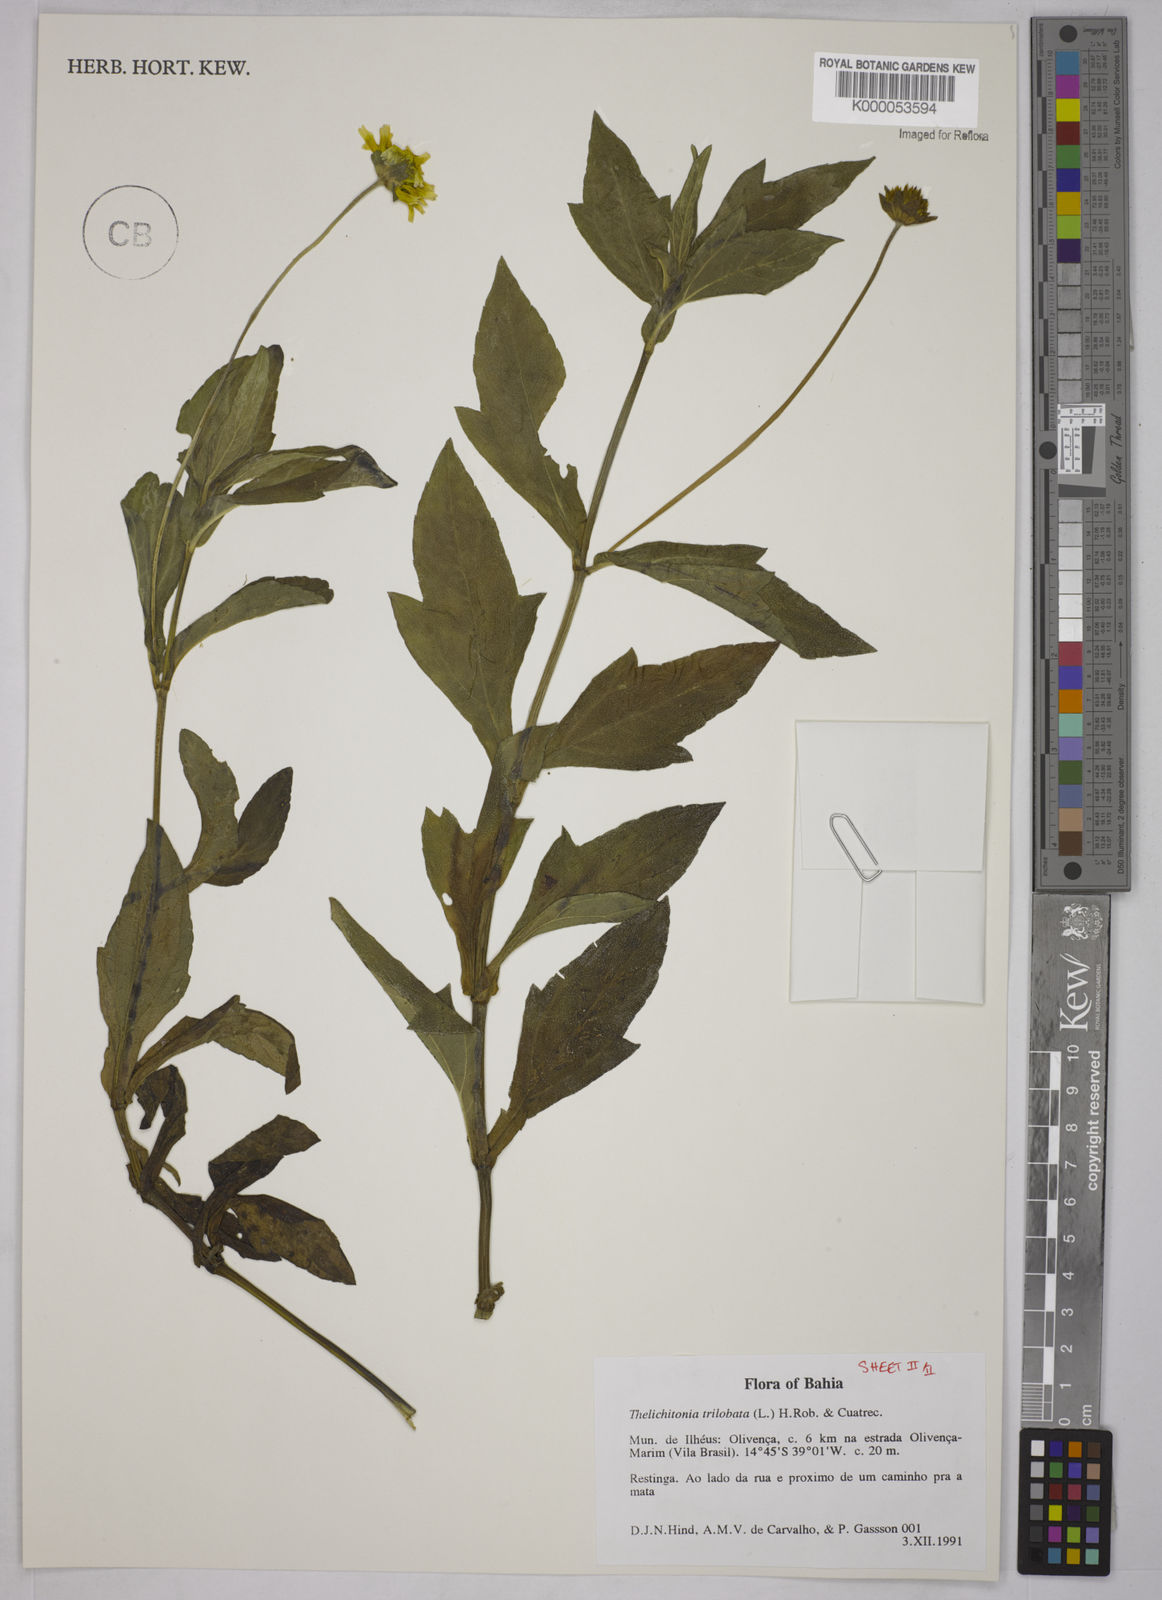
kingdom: Plantae
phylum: Tracheophyta
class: Magnoliopsida
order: Asterales
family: Asteraceae
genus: Sphagneticola
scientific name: Sphagneticola trilobata
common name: Bay biscayne creeping-oxeye
